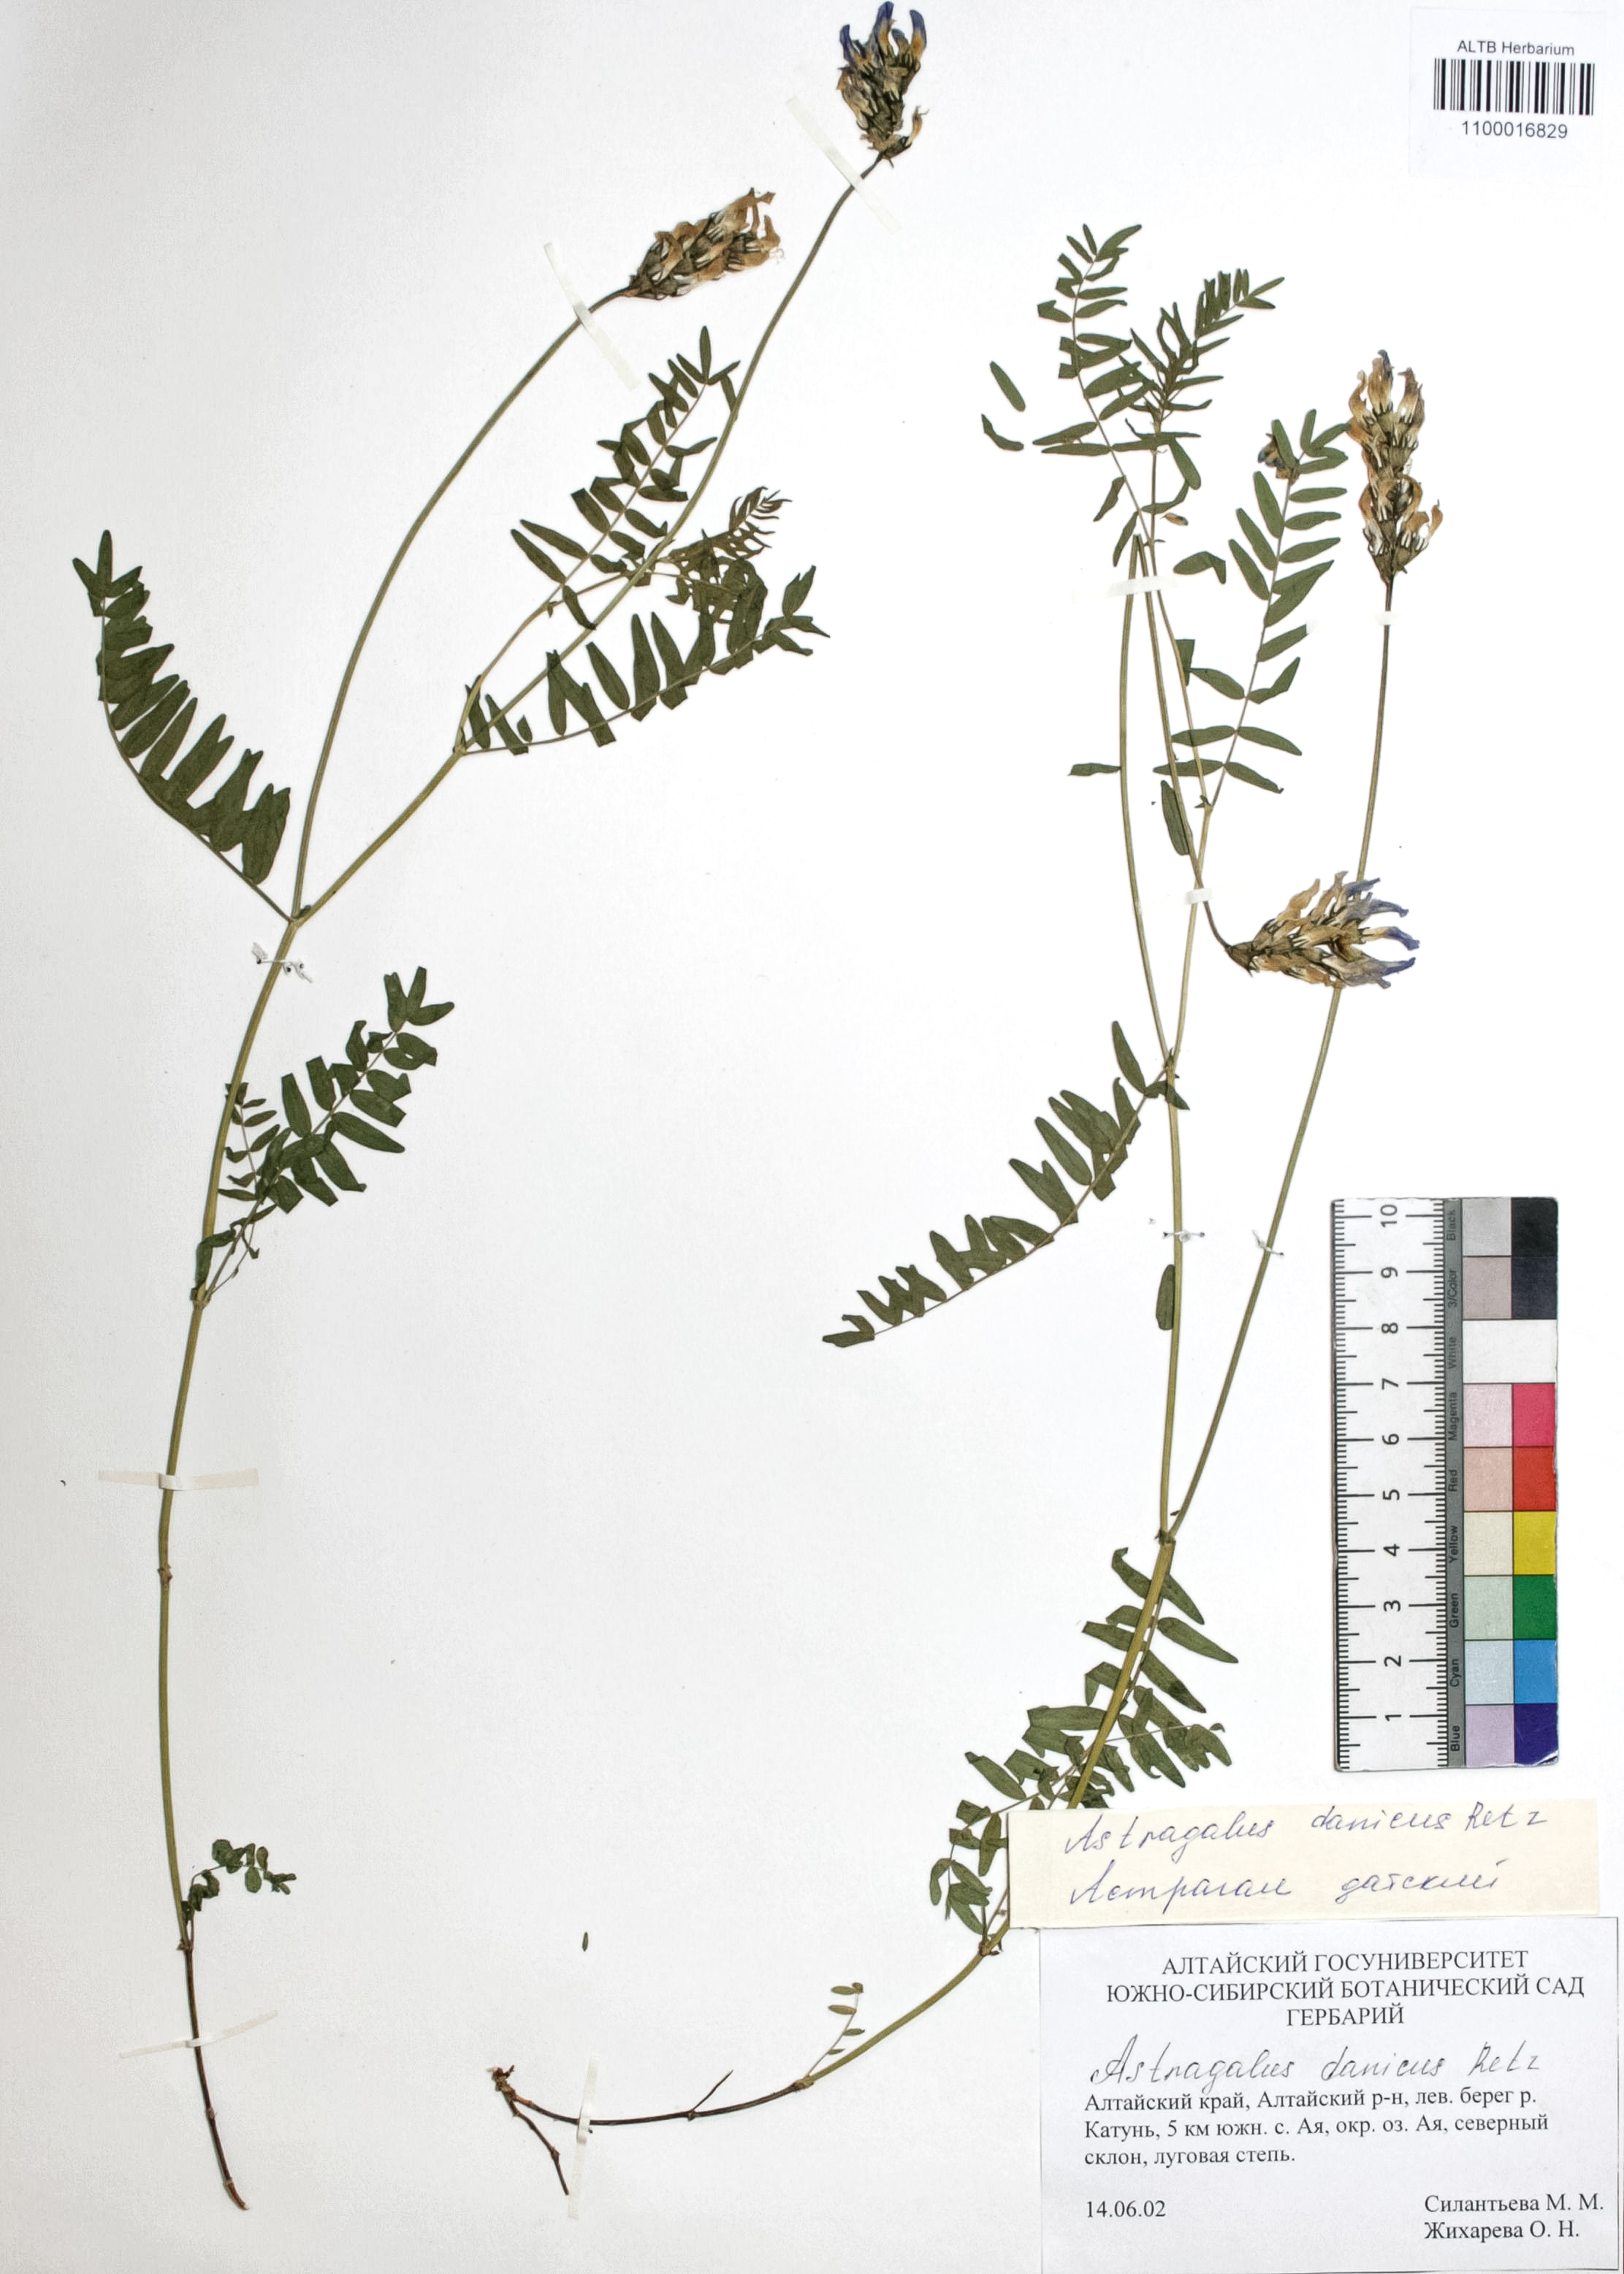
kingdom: Plantae
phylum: Tracheophyta
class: Magnoliopsida
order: Fabales
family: Fabaceae
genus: Astragalus
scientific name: Astragalus danicus
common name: Purple milk-vetch
